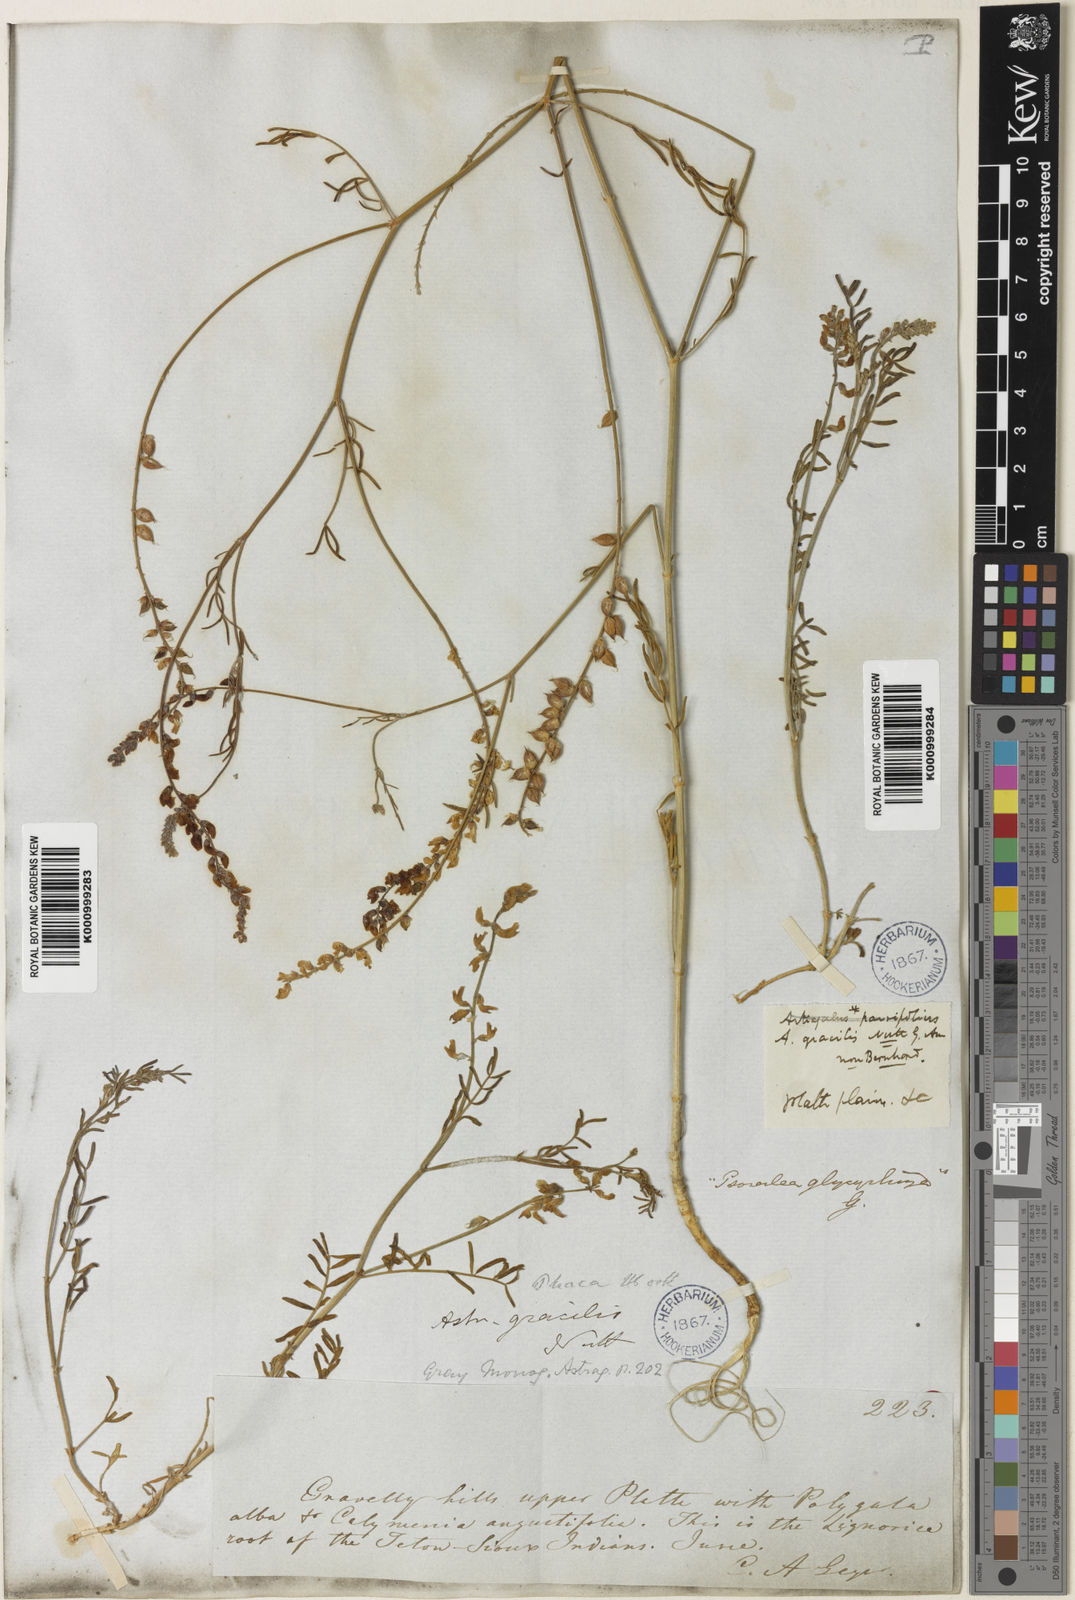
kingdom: Plantae
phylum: Tracheophyta
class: Magnoliopsida
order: Fabales
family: Fabaceae
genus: Astragalus
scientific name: Astragalus gracilis
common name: Slender milk-vetch
